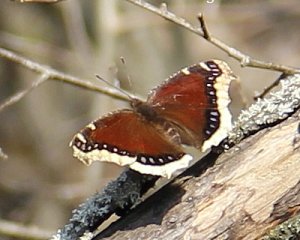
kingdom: Animalia
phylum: Arthropoda
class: Insecta
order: Lepidoptera
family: Nymphalidae
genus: Nymphalis
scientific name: Nymphalis antiopa
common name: Mourning Cloak
